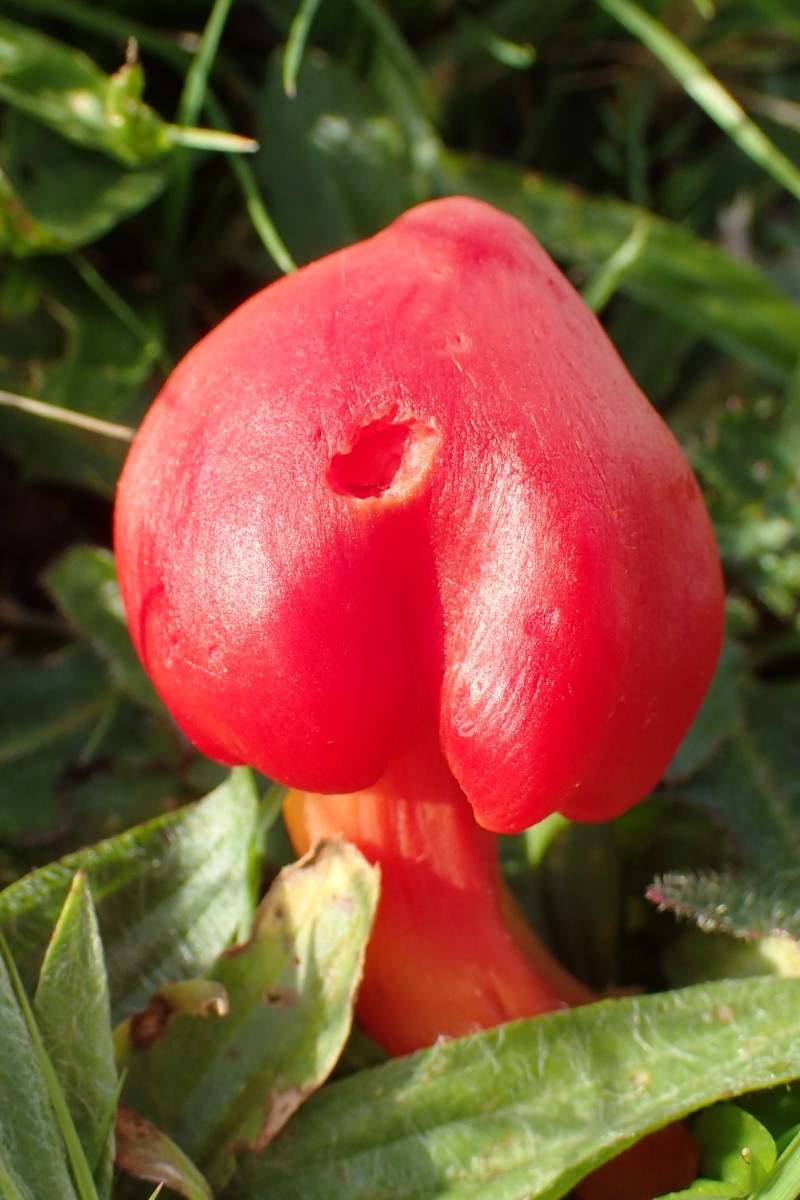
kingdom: Fungi
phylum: Basidiomycota
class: Agaricomycetes
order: Agaricales
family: Hygrophoraceae
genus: Hygrocybe
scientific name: Hygrocybe splendidissima
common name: knaldrød vokshat
